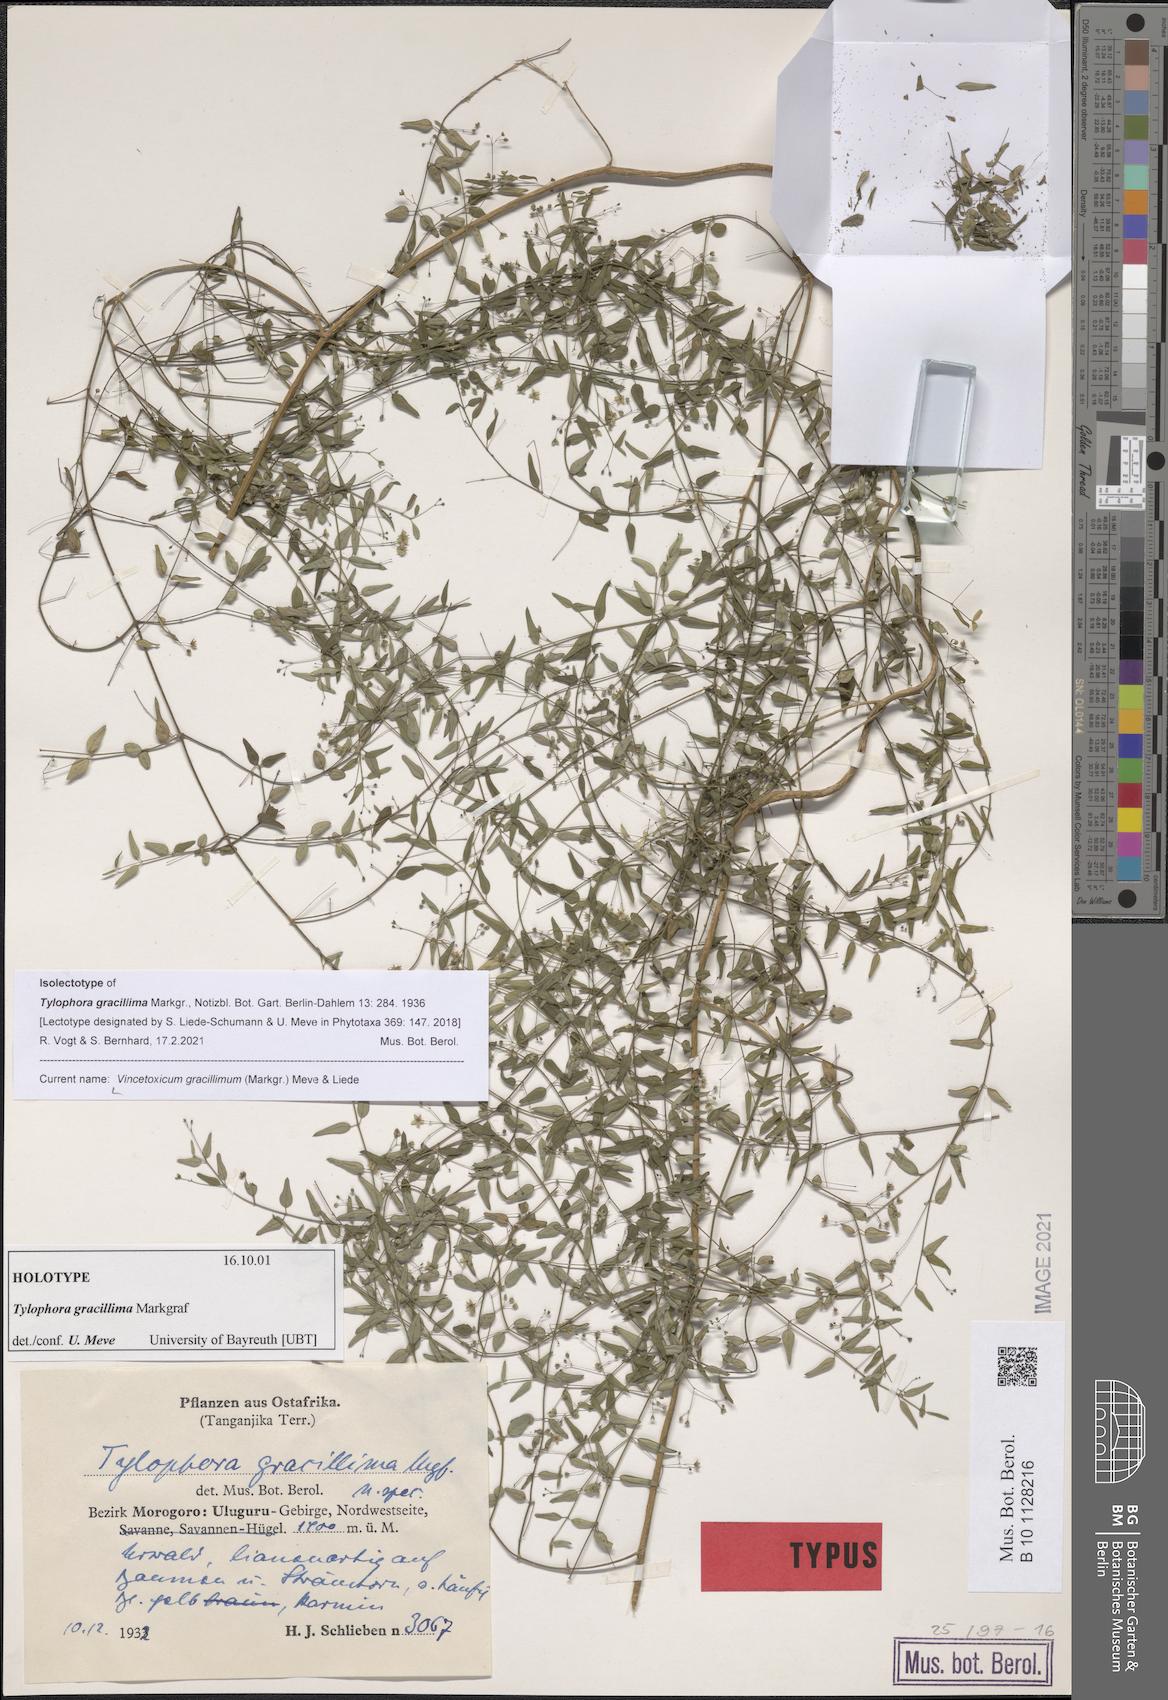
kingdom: Plantae
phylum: Tracheophyta
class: Magnoliopsida
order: Gentianales
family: Apocynaceae
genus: Vincetoxicum
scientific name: Vincetoxicum gracillimum
